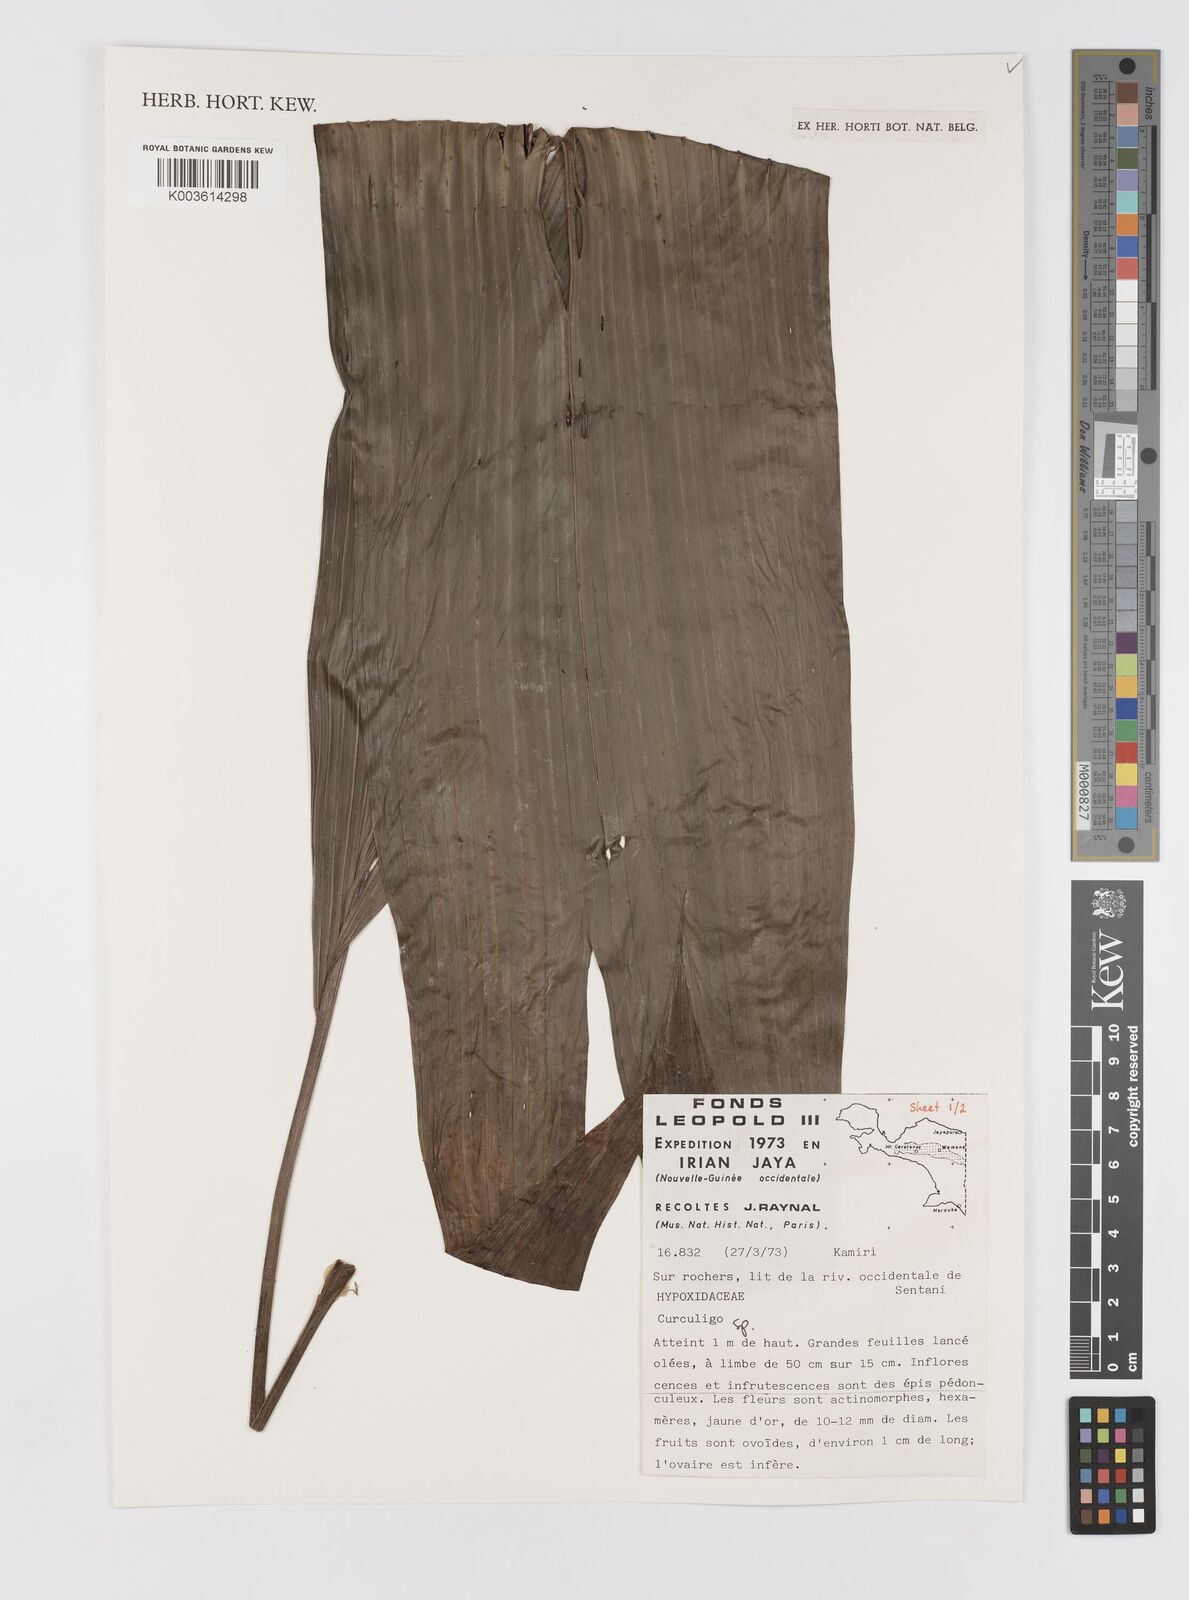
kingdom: Plantae
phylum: Tracheophyta
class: Liliopsida
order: Asparagales
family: Hypoxidaceae
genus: Curculigo
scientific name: Curculigo
